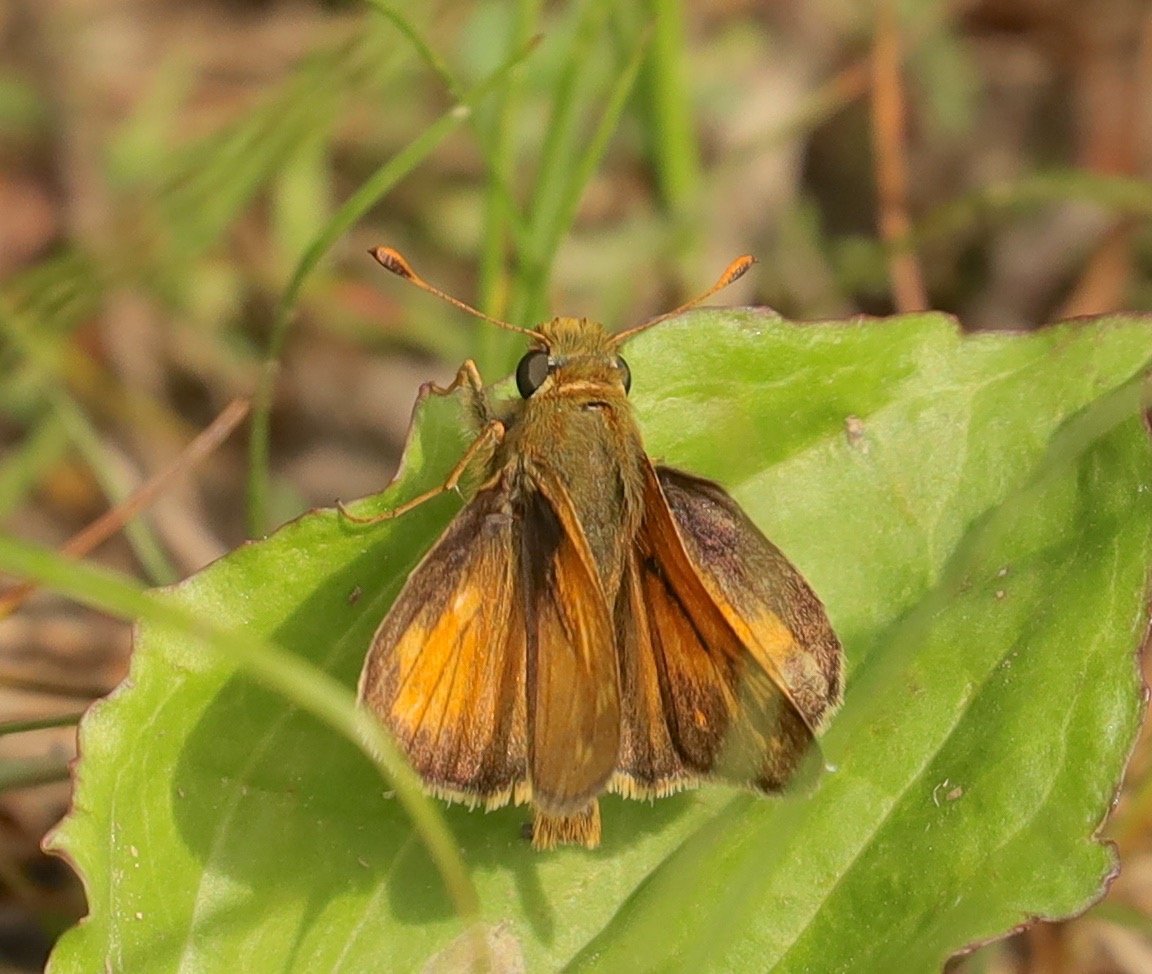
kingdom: Animalia
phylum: Arthropoda
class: Insecta
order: Lepidoptera
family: Hesperiidae
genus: Hesperia
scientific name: Hesperia sassacus
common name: Sassacus Skipper
